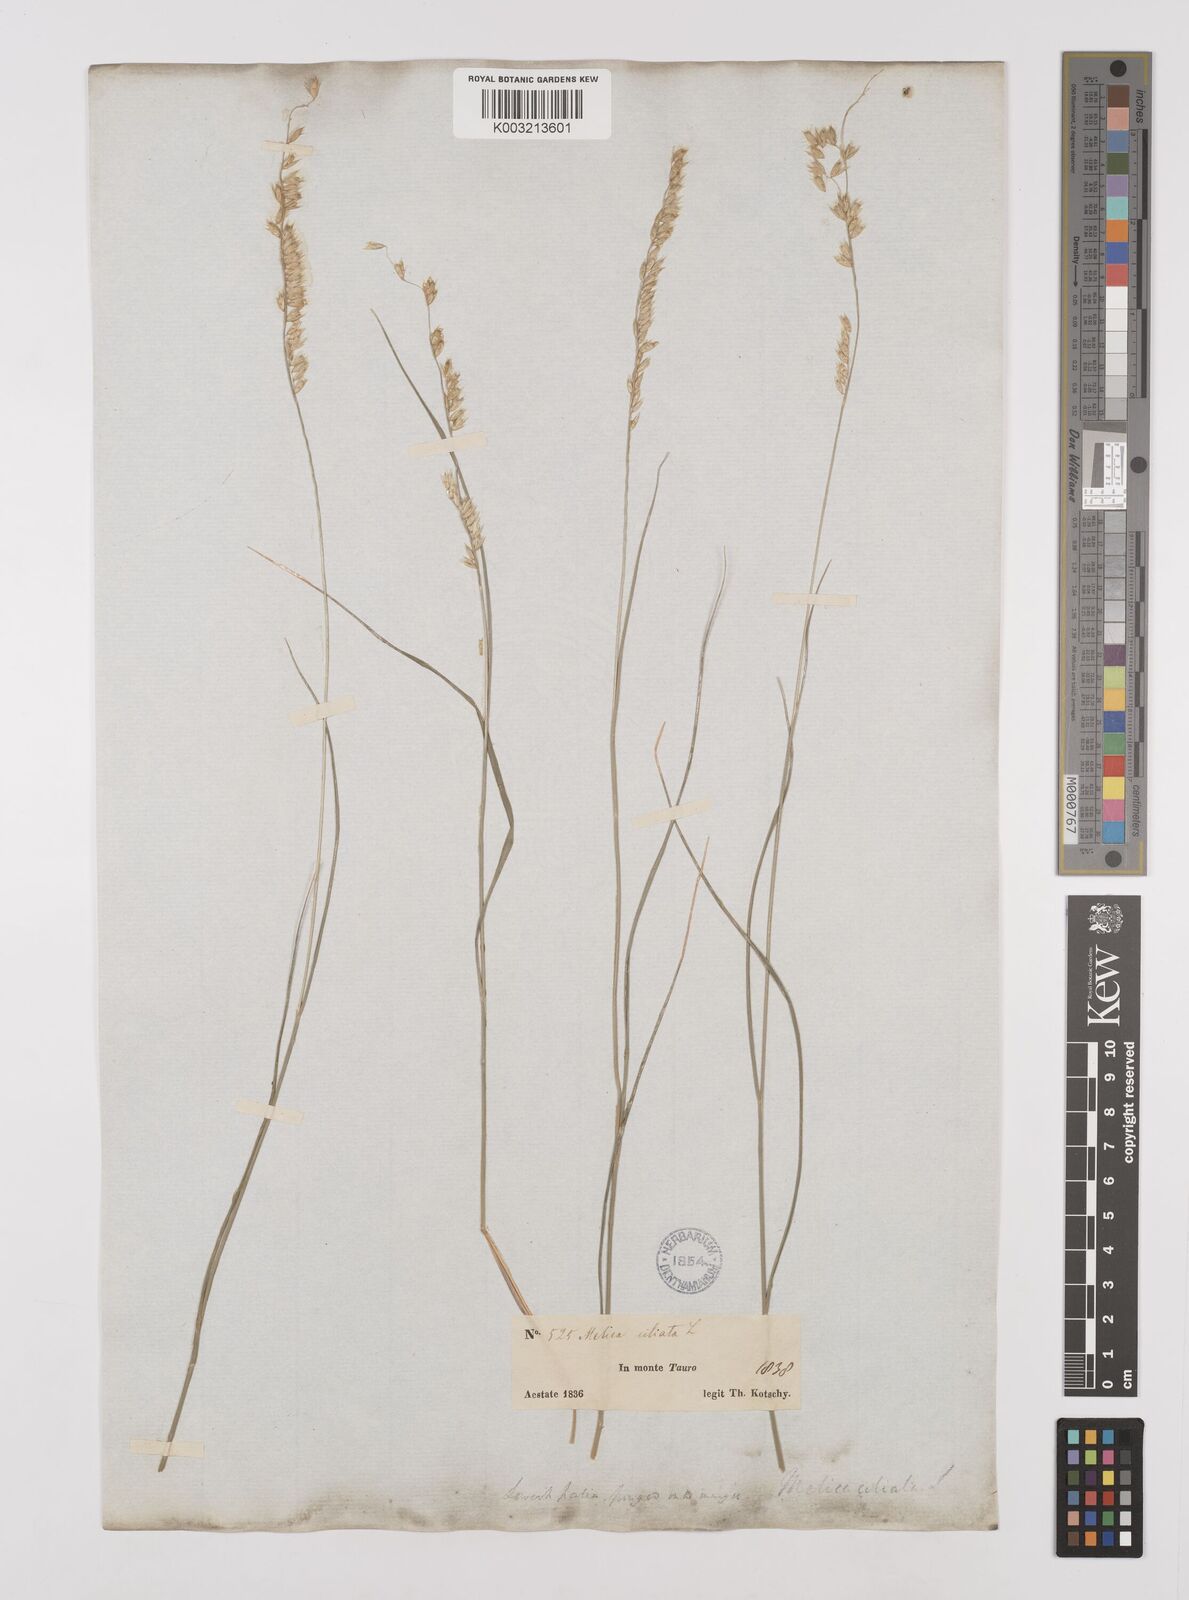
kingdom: Plantae
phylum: Tracheophyta
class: Liliopsida
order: Poales
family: Poaceae
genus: Melica
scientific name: Melica ciliata
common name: Hairy melicgrass
